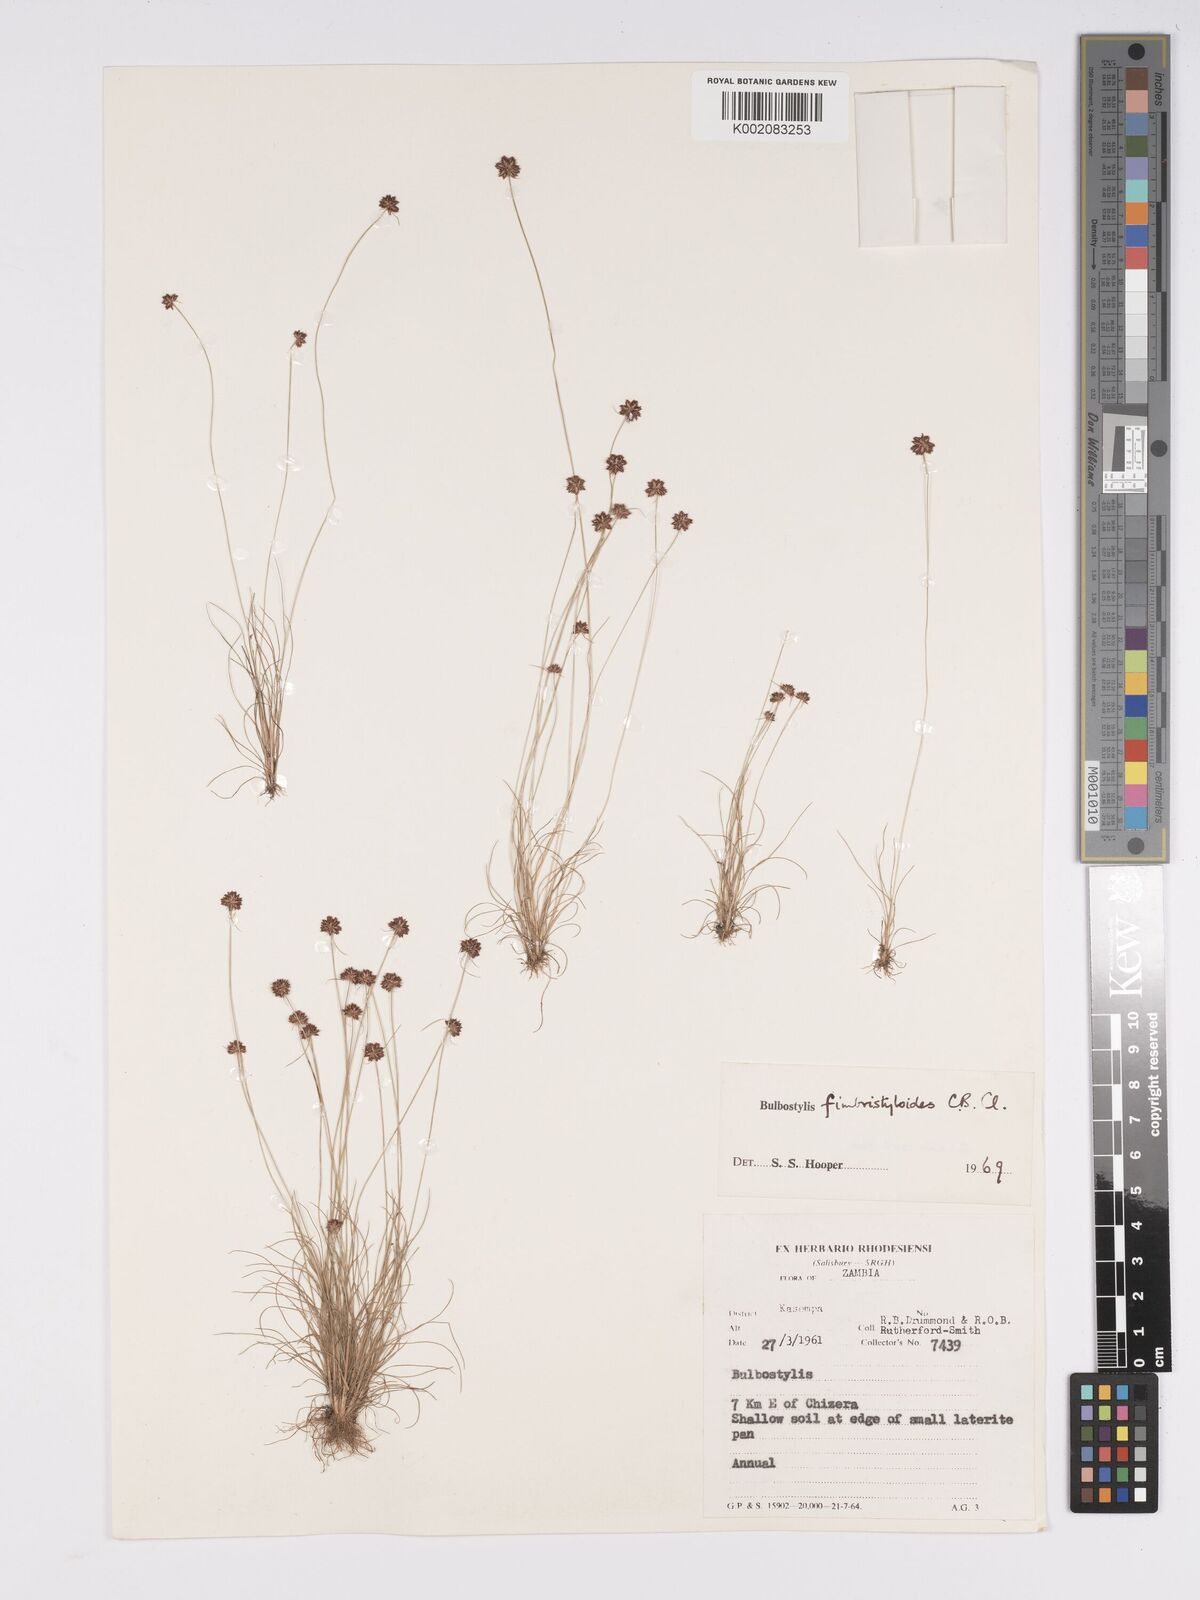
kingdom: Plantae
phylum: Tracheophyta
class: Liliopsida
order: Poales
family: Cyperaceae
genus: Bulbostylis
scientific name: Bulbostylis fimbristyloides
